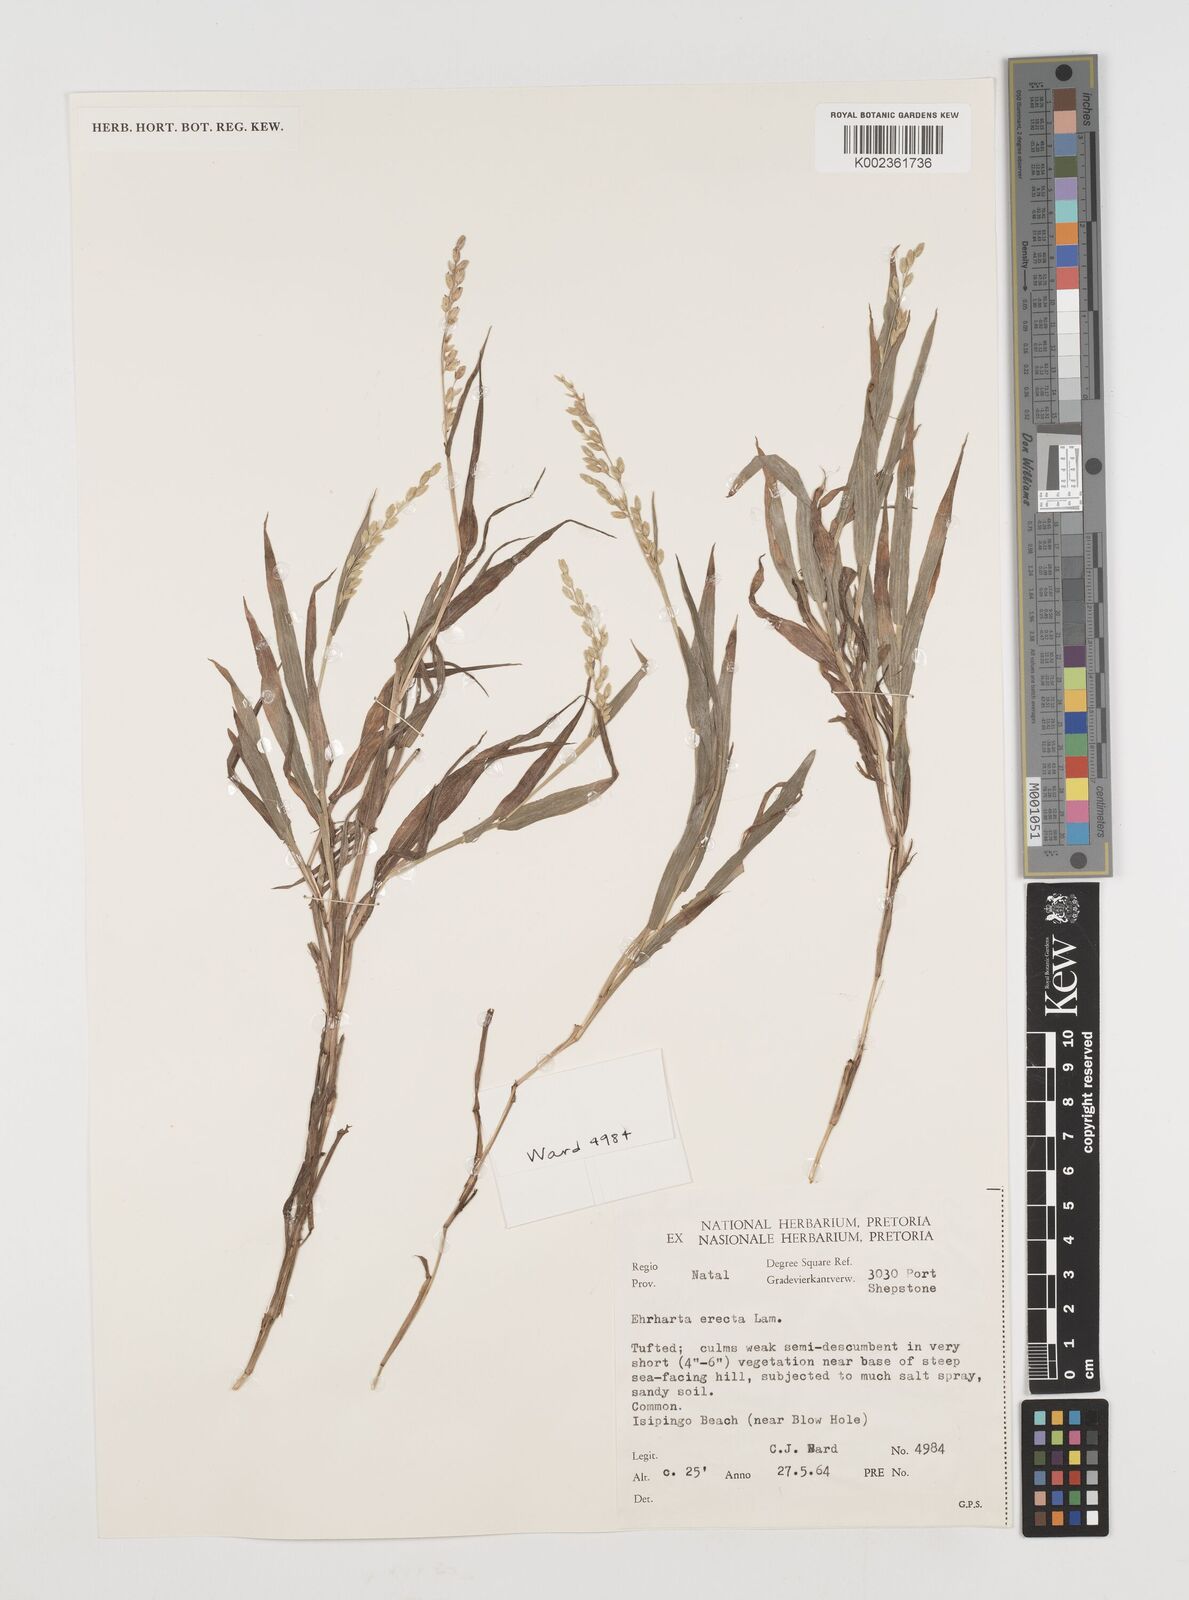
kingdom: Plantae
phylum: Tracheophyta
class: Liliopsida
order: Poales
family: Poaceae
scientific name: Poaceae
